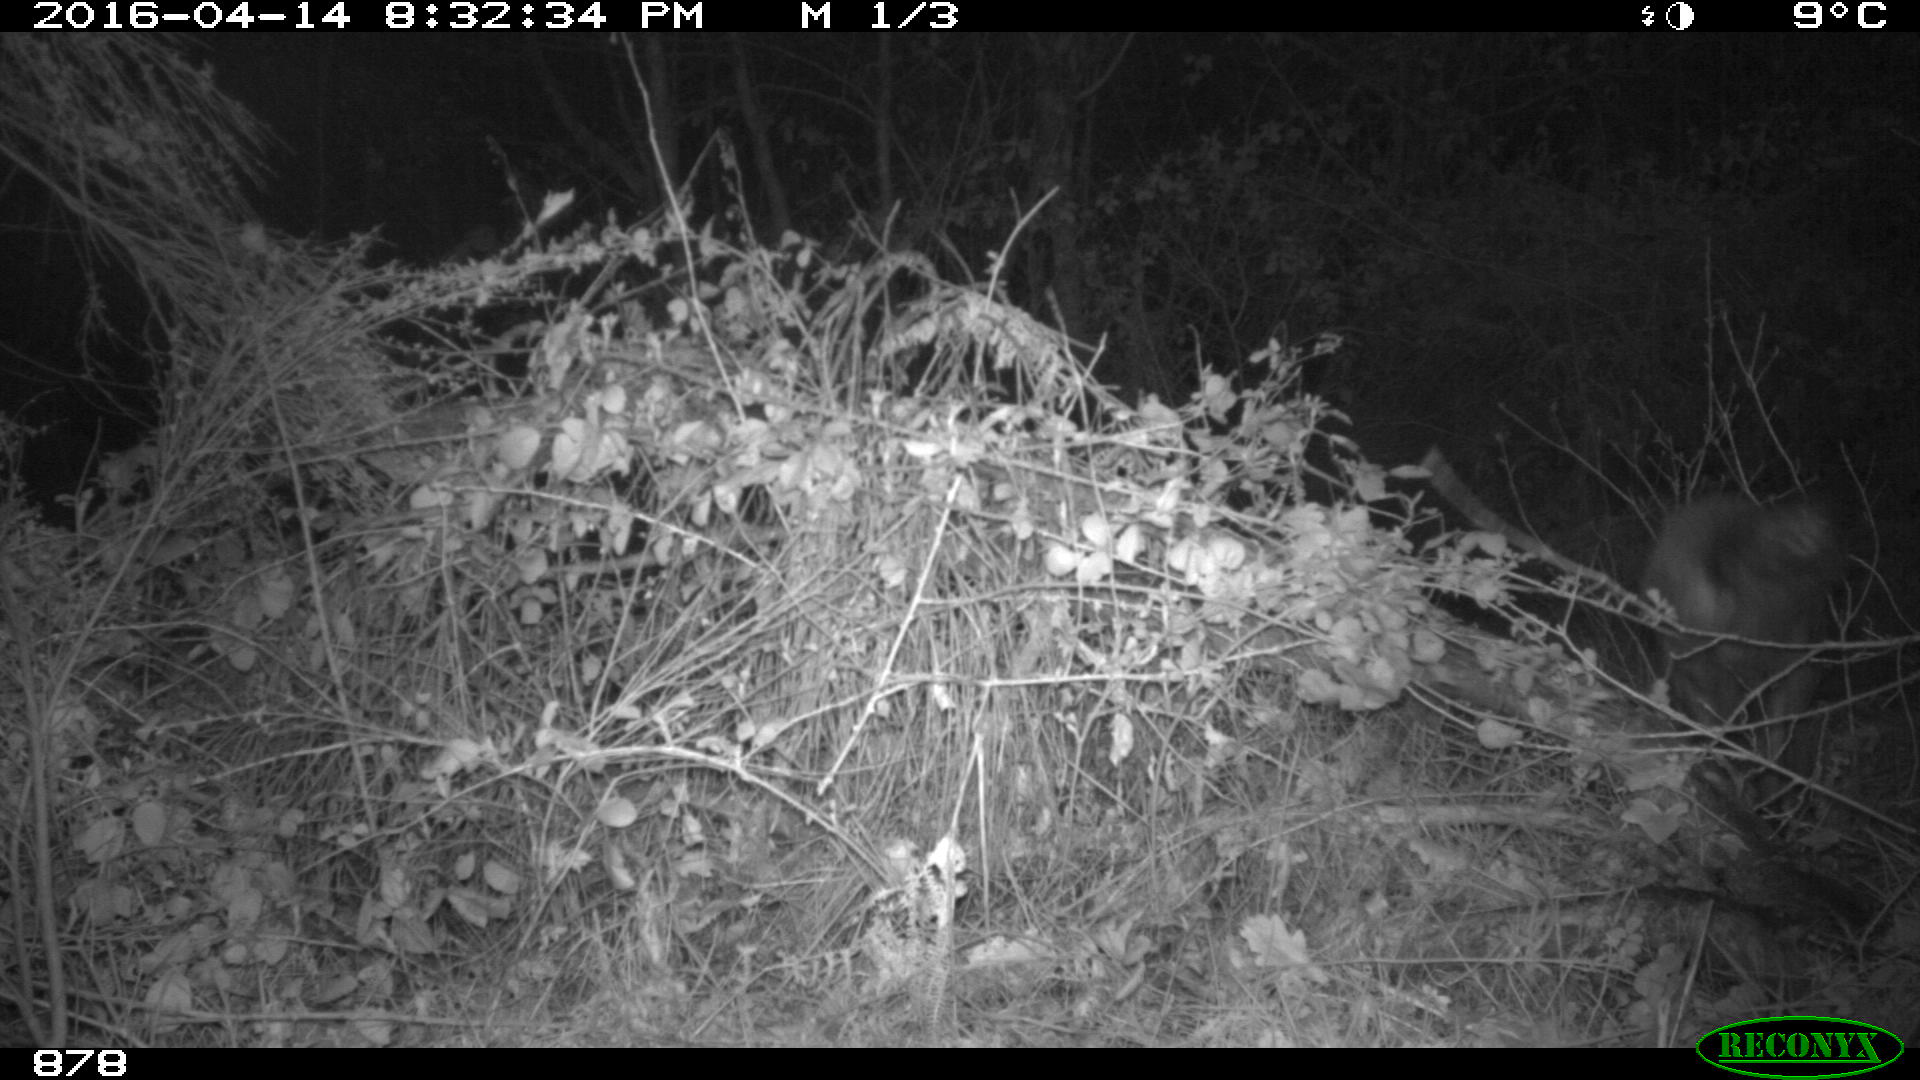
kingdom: Animalia
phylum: Chordata
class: Mammalia
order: Artiodactyla
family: Suidae
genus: Sus
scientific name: Sus scrofa
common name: Wild boar
